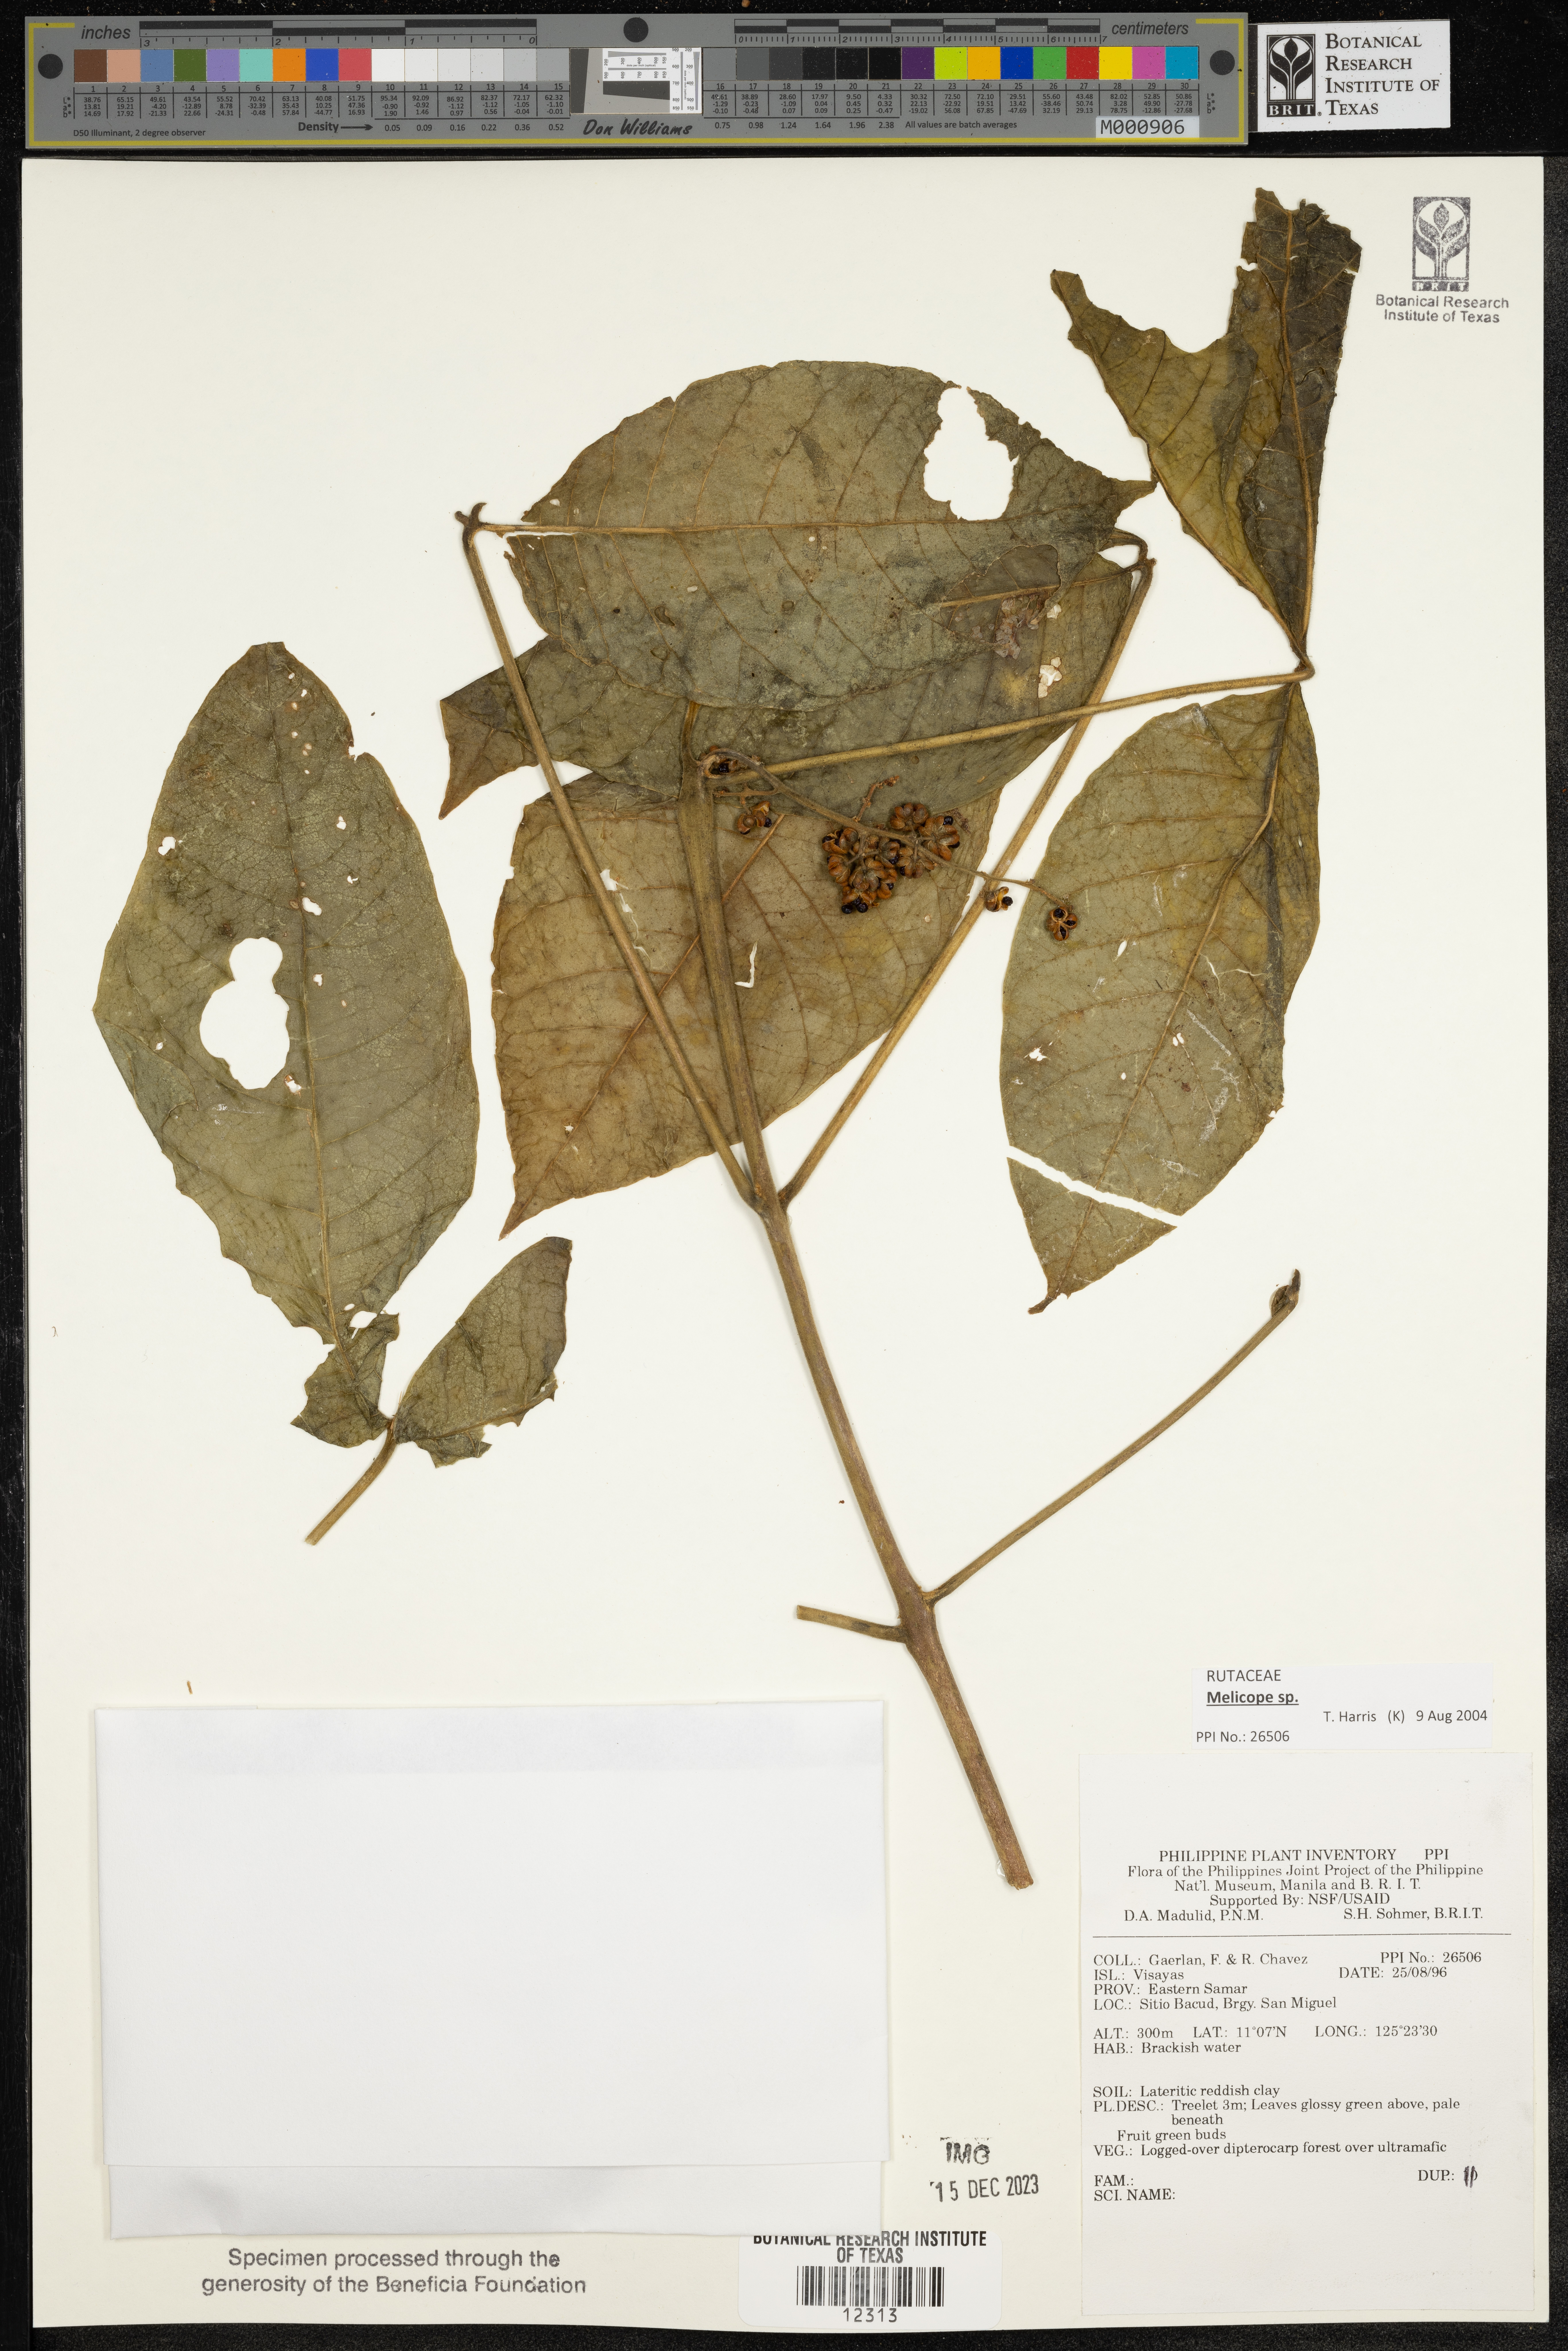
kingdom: Plantae
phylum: Tracheophyta
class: Magnoliopsida
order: Sapindales
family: Rutaceae
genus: Melicope
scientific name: Melicope
